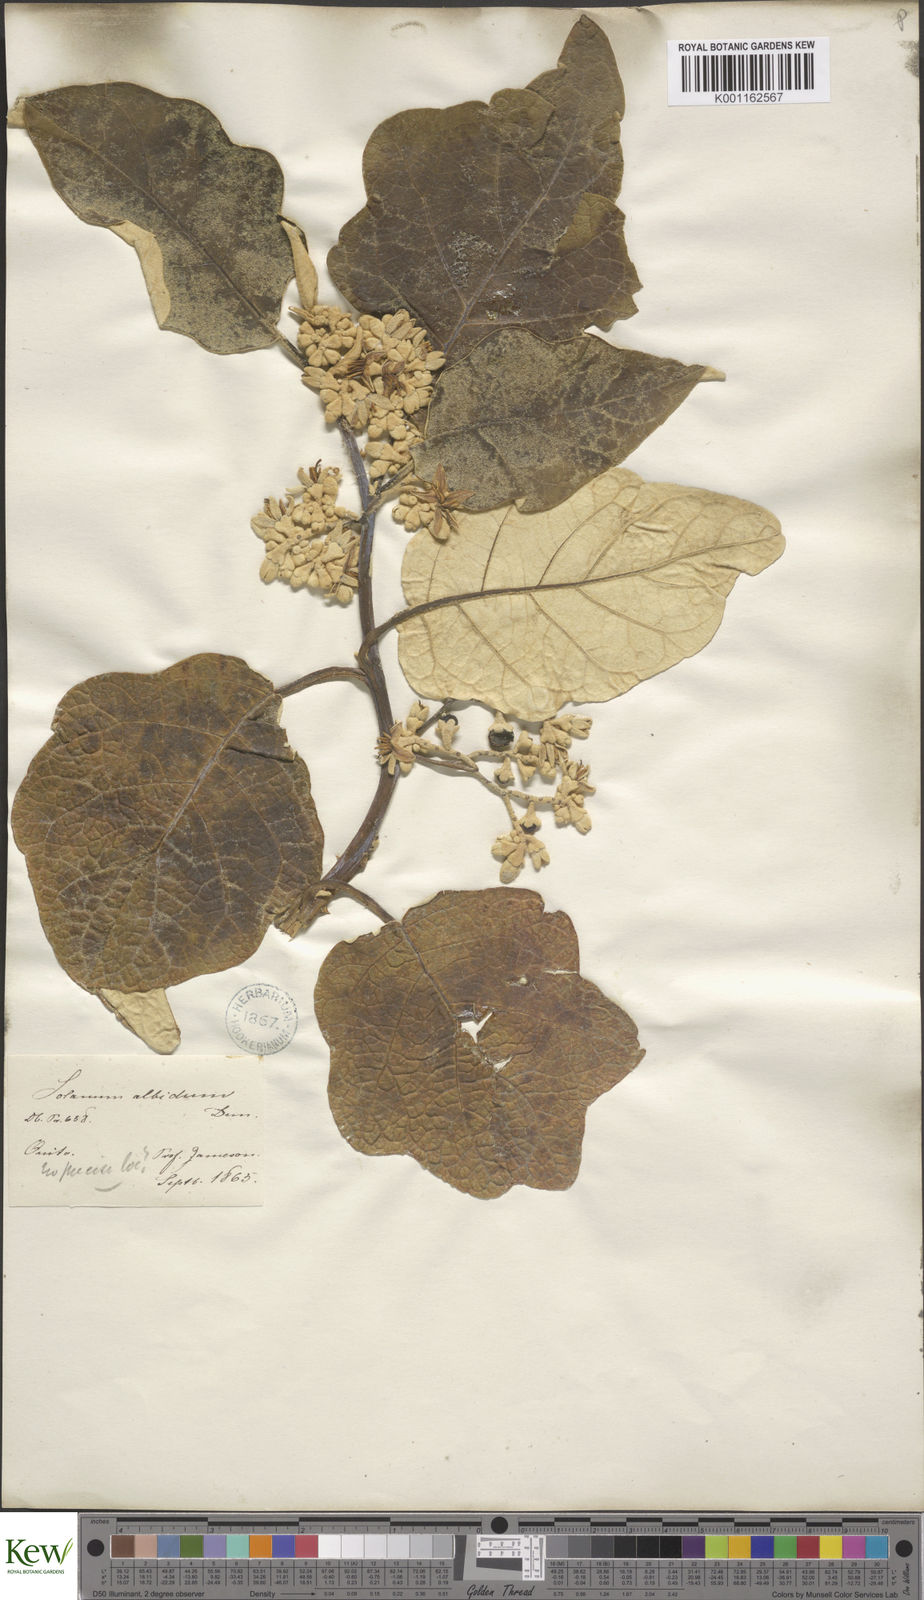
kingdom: Plantae
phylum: Tracheophyta
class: Magnoliopsida
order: Solanales
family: Solanaceae
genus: Solanum
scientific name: Solanum albidum
